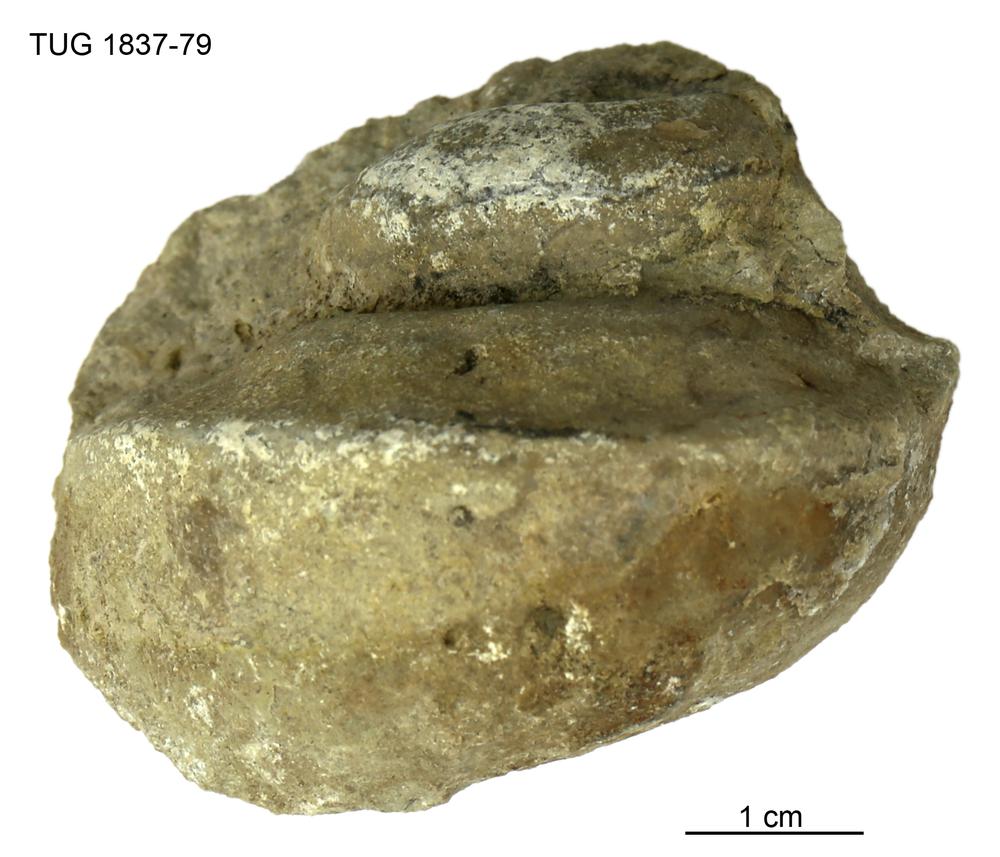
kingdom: Animalia
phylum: Mollusca
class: Gastropoda
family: Lophospiridae
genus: Lophospira
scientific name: Lophospira
